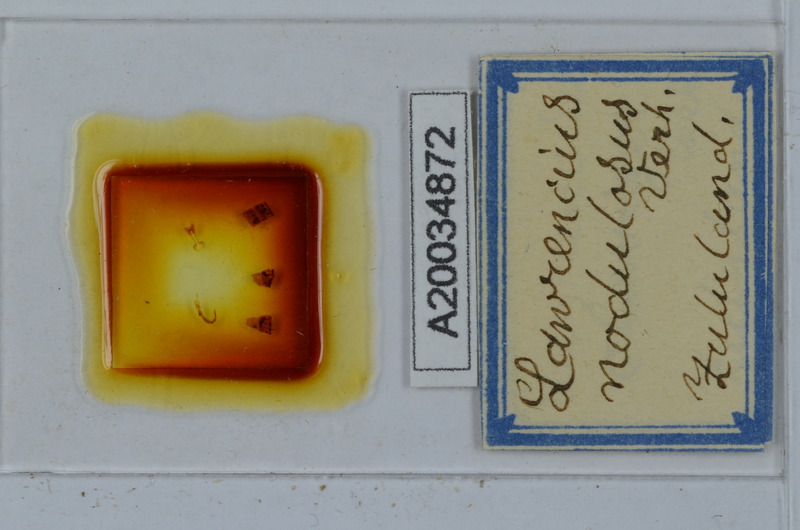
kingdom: Animalia
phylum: Chordata
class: Aves
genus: Lawrencius
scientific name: Lawrencius
